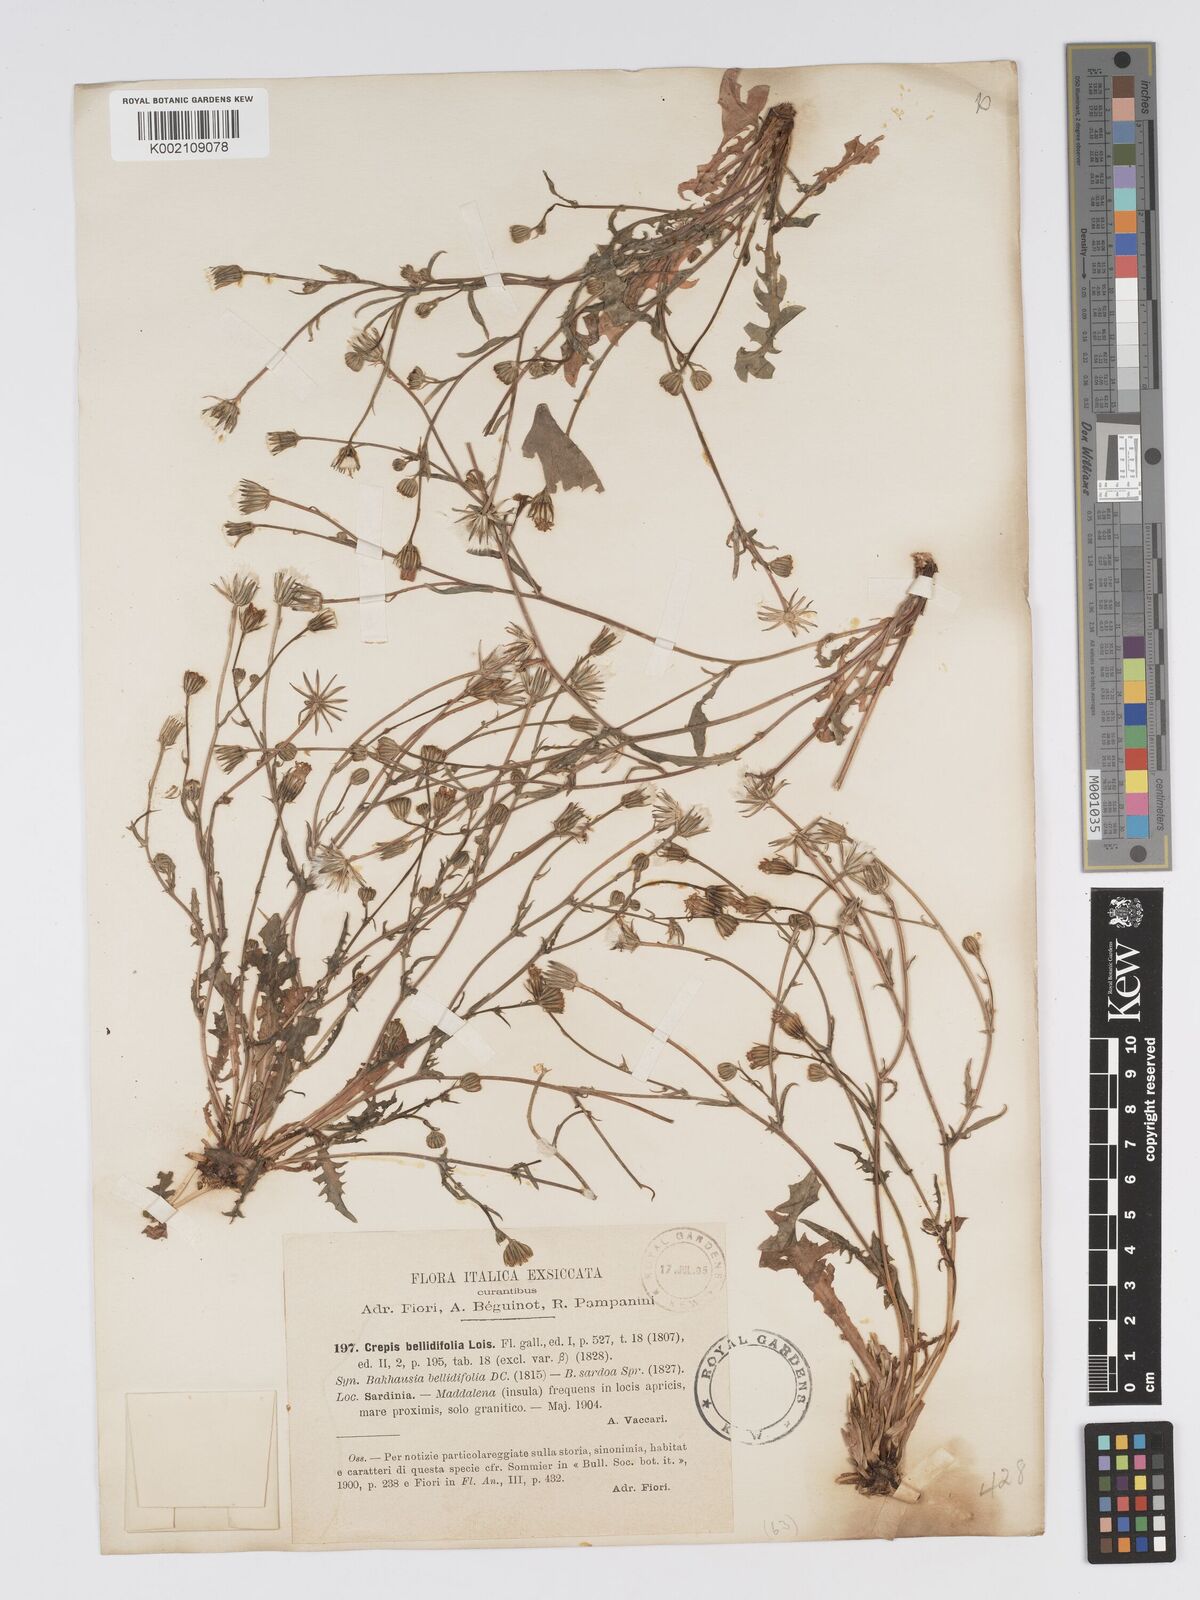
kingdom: Plantae
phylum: Tracheophyta
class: Magnoliopsida
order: Asterales
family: Asteraceae
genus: Crepis
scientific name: Crepis bellidifolia
